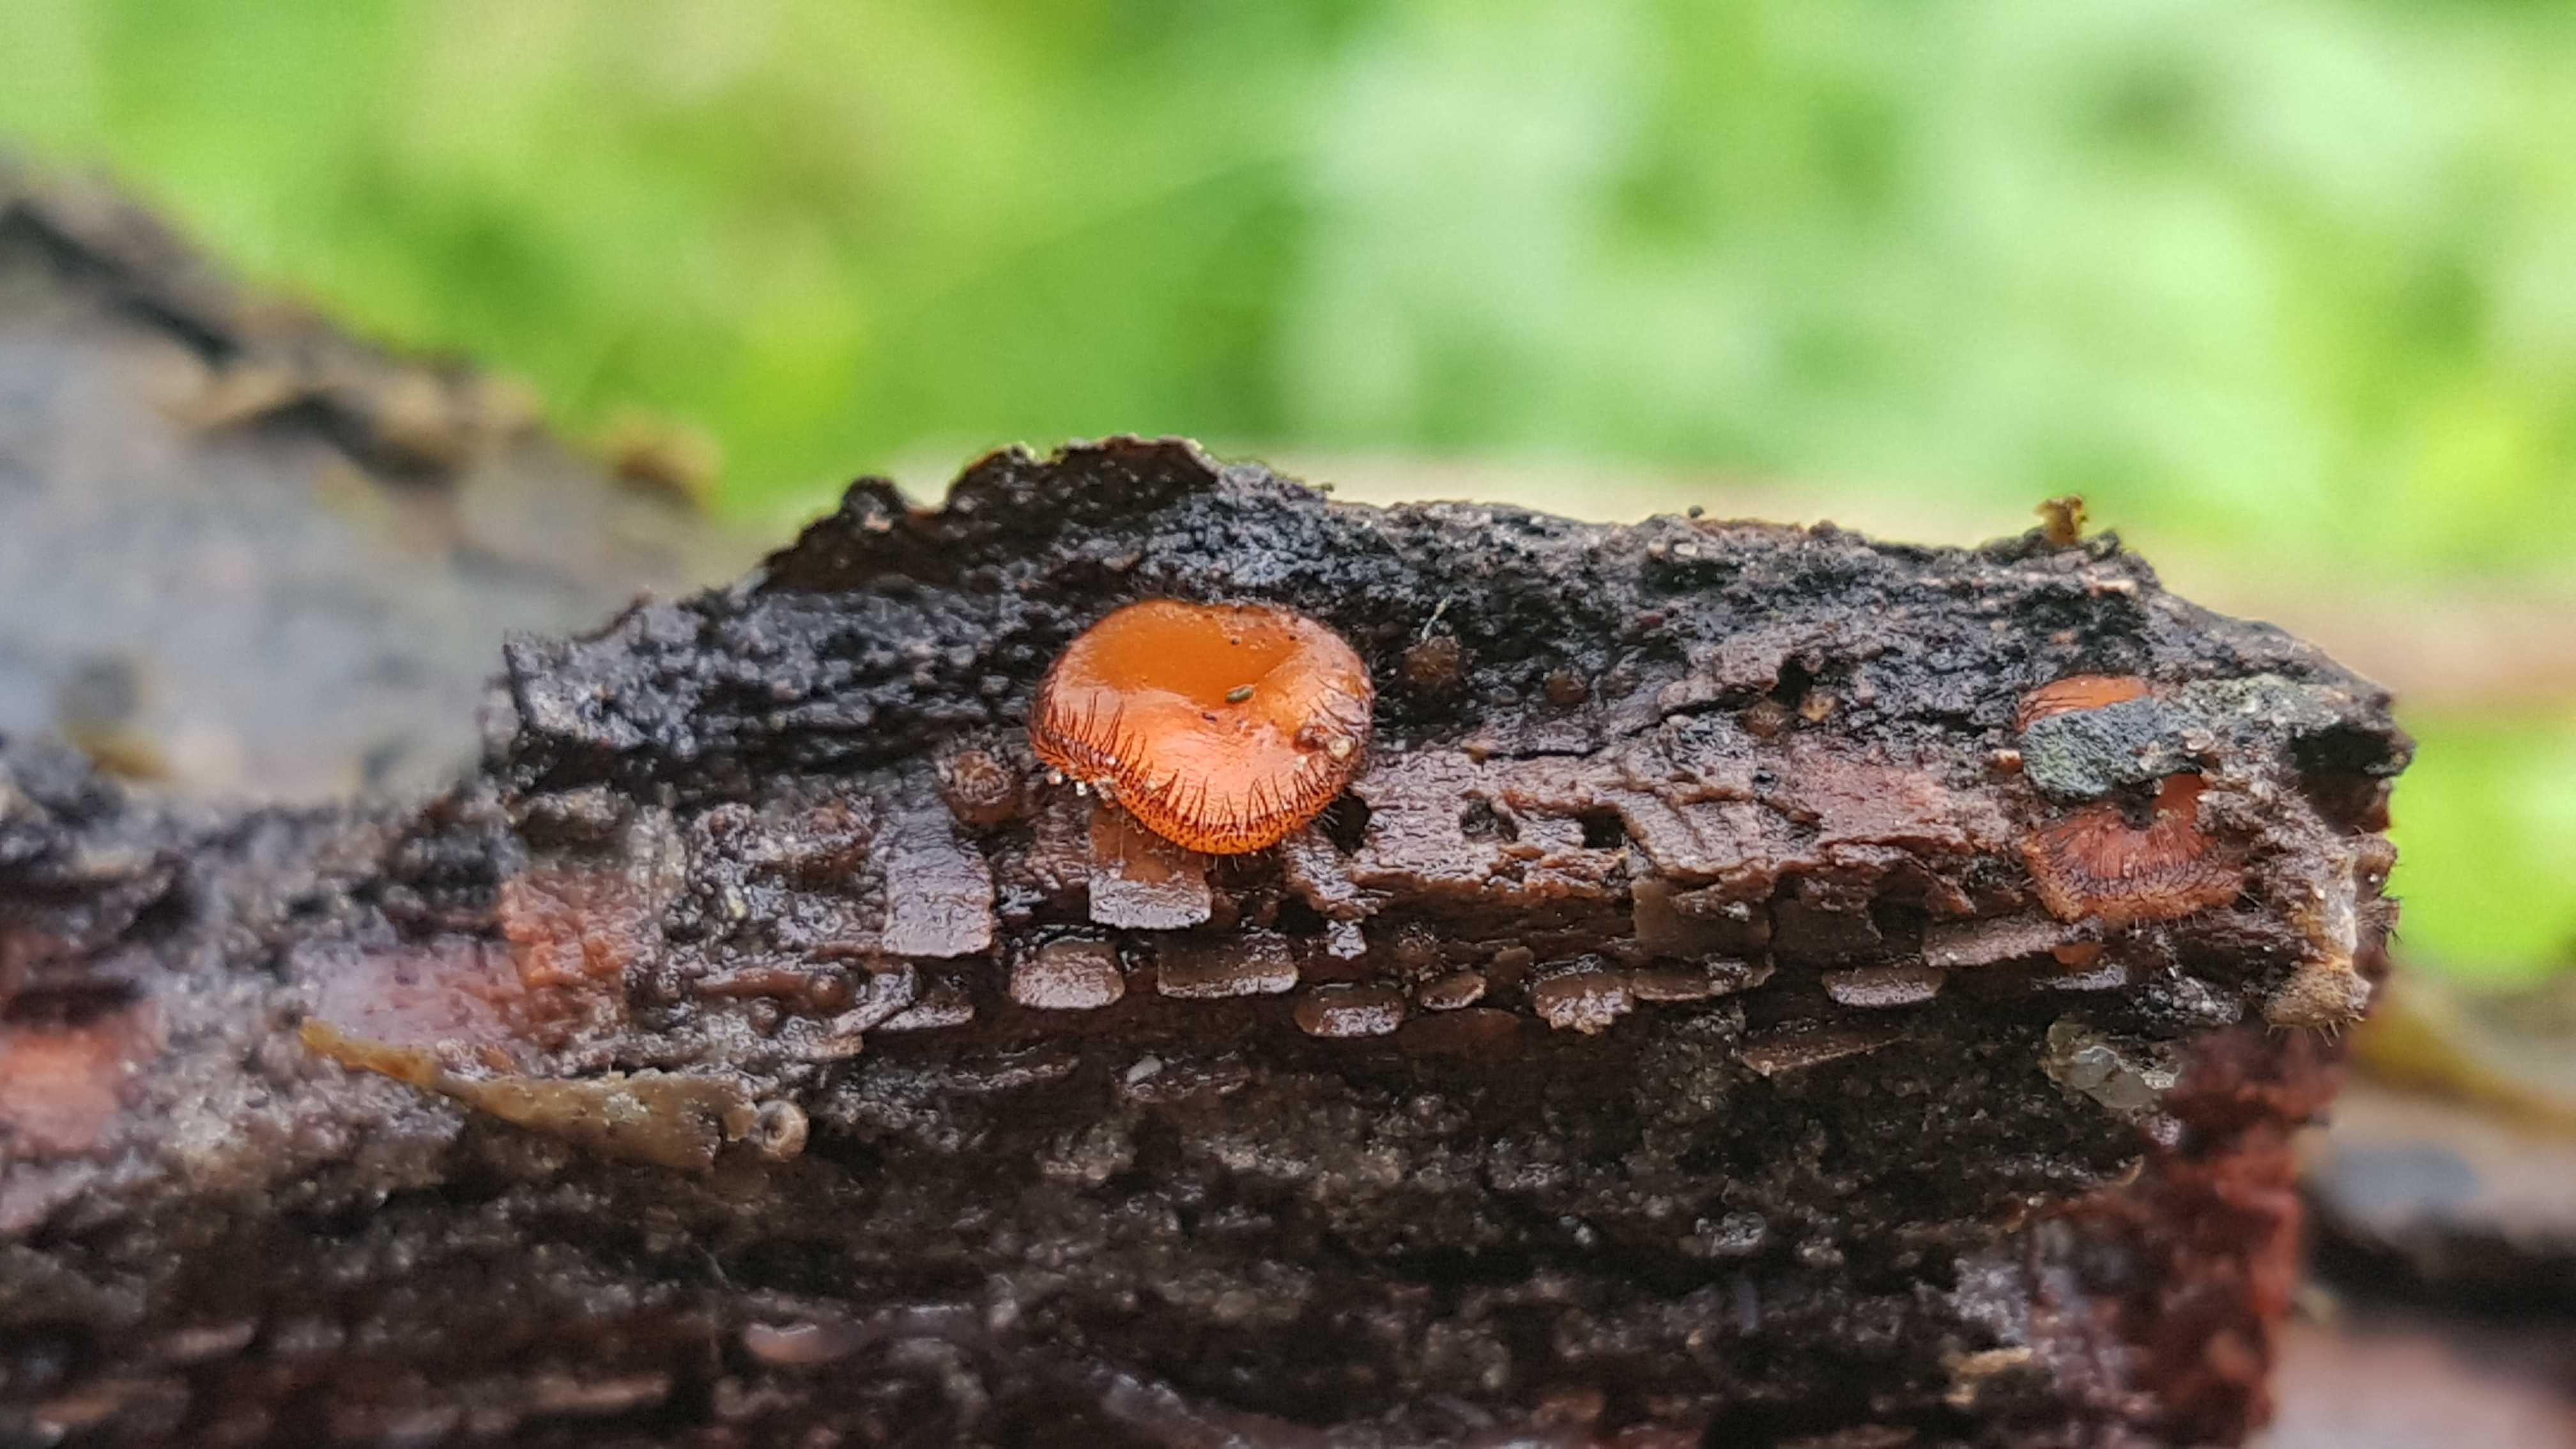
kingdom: Fungi
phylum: Ascomycota
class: Pezizomycetes
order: Pezizales
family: Pyronemataceae
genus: Scutellinia
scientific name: Scutellinia
